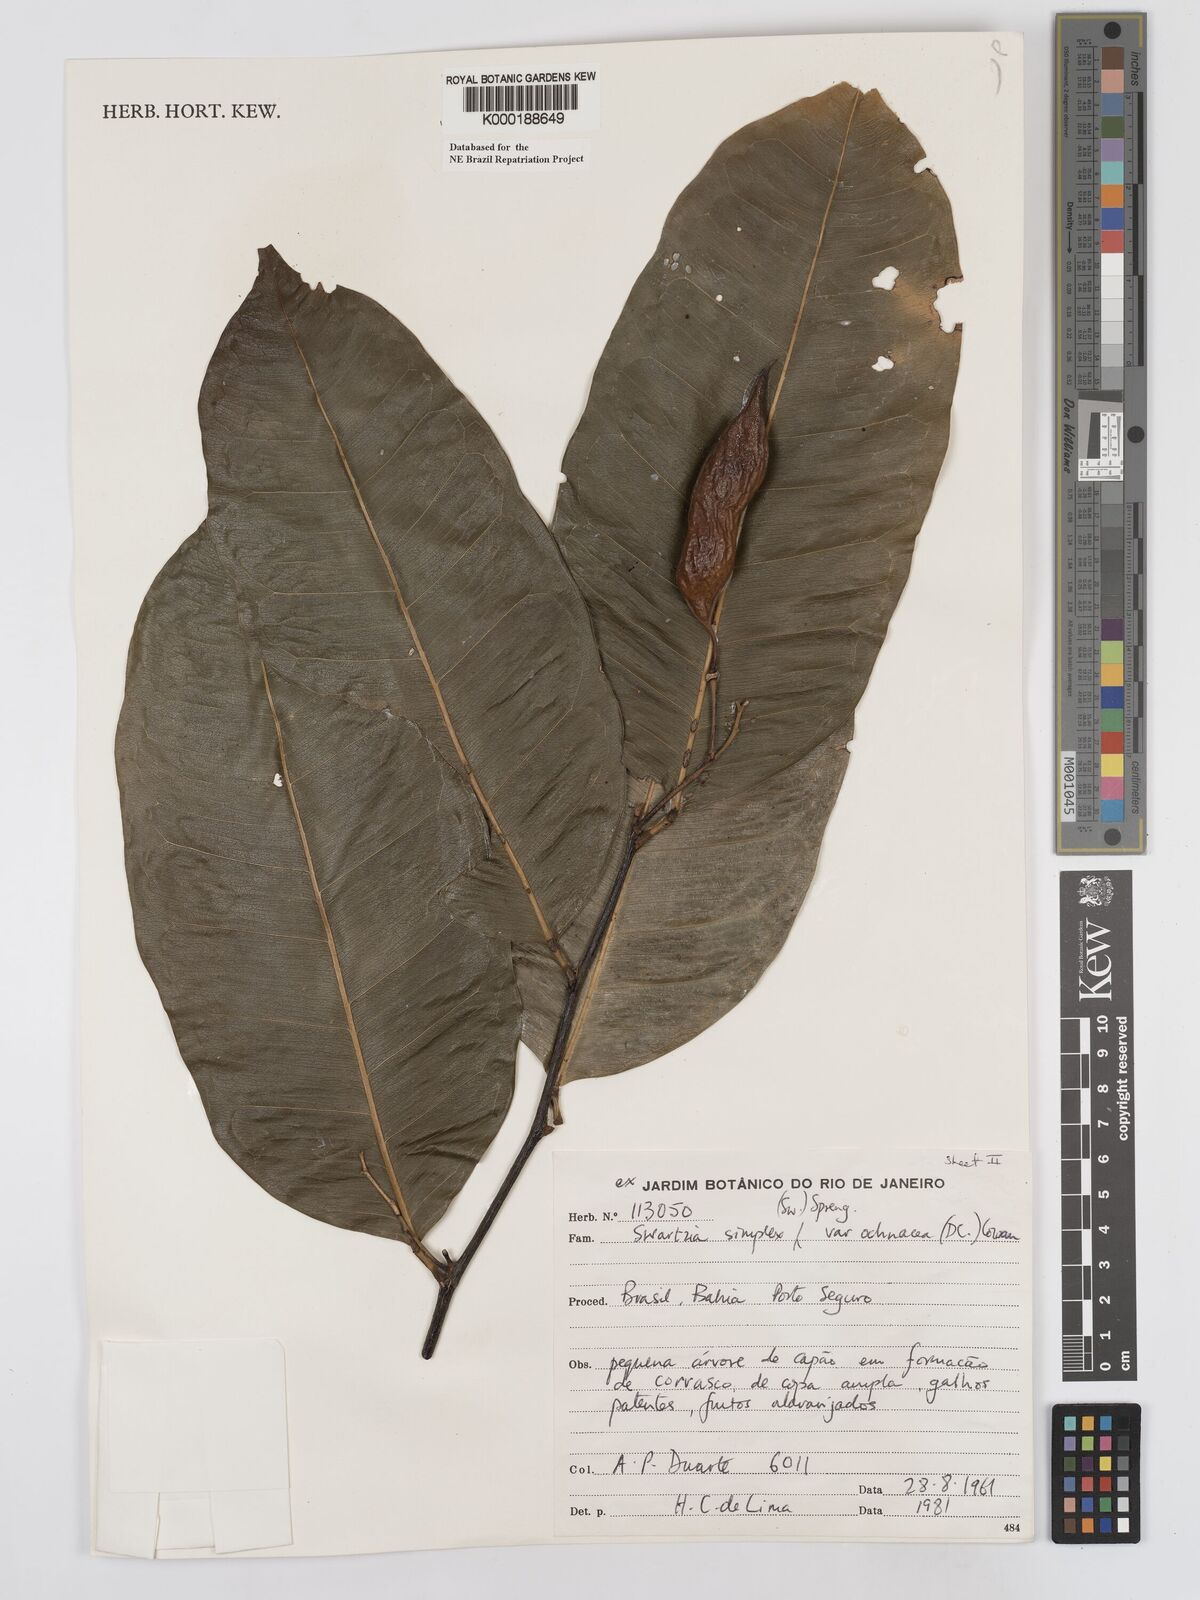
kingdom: Plantae
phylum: Tracheophyta
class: Magnoliopsida
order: Fabales
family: Fabaceae
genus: Swartzia
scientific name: Swartzia simplex
